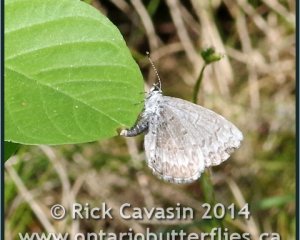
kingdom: Animalia
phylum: Arthropoda
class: Insecta
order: Lepidoptera
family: Lycaenidae
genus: Celastrina
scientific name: Celastrina lucia
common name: Northern Spring Azure
